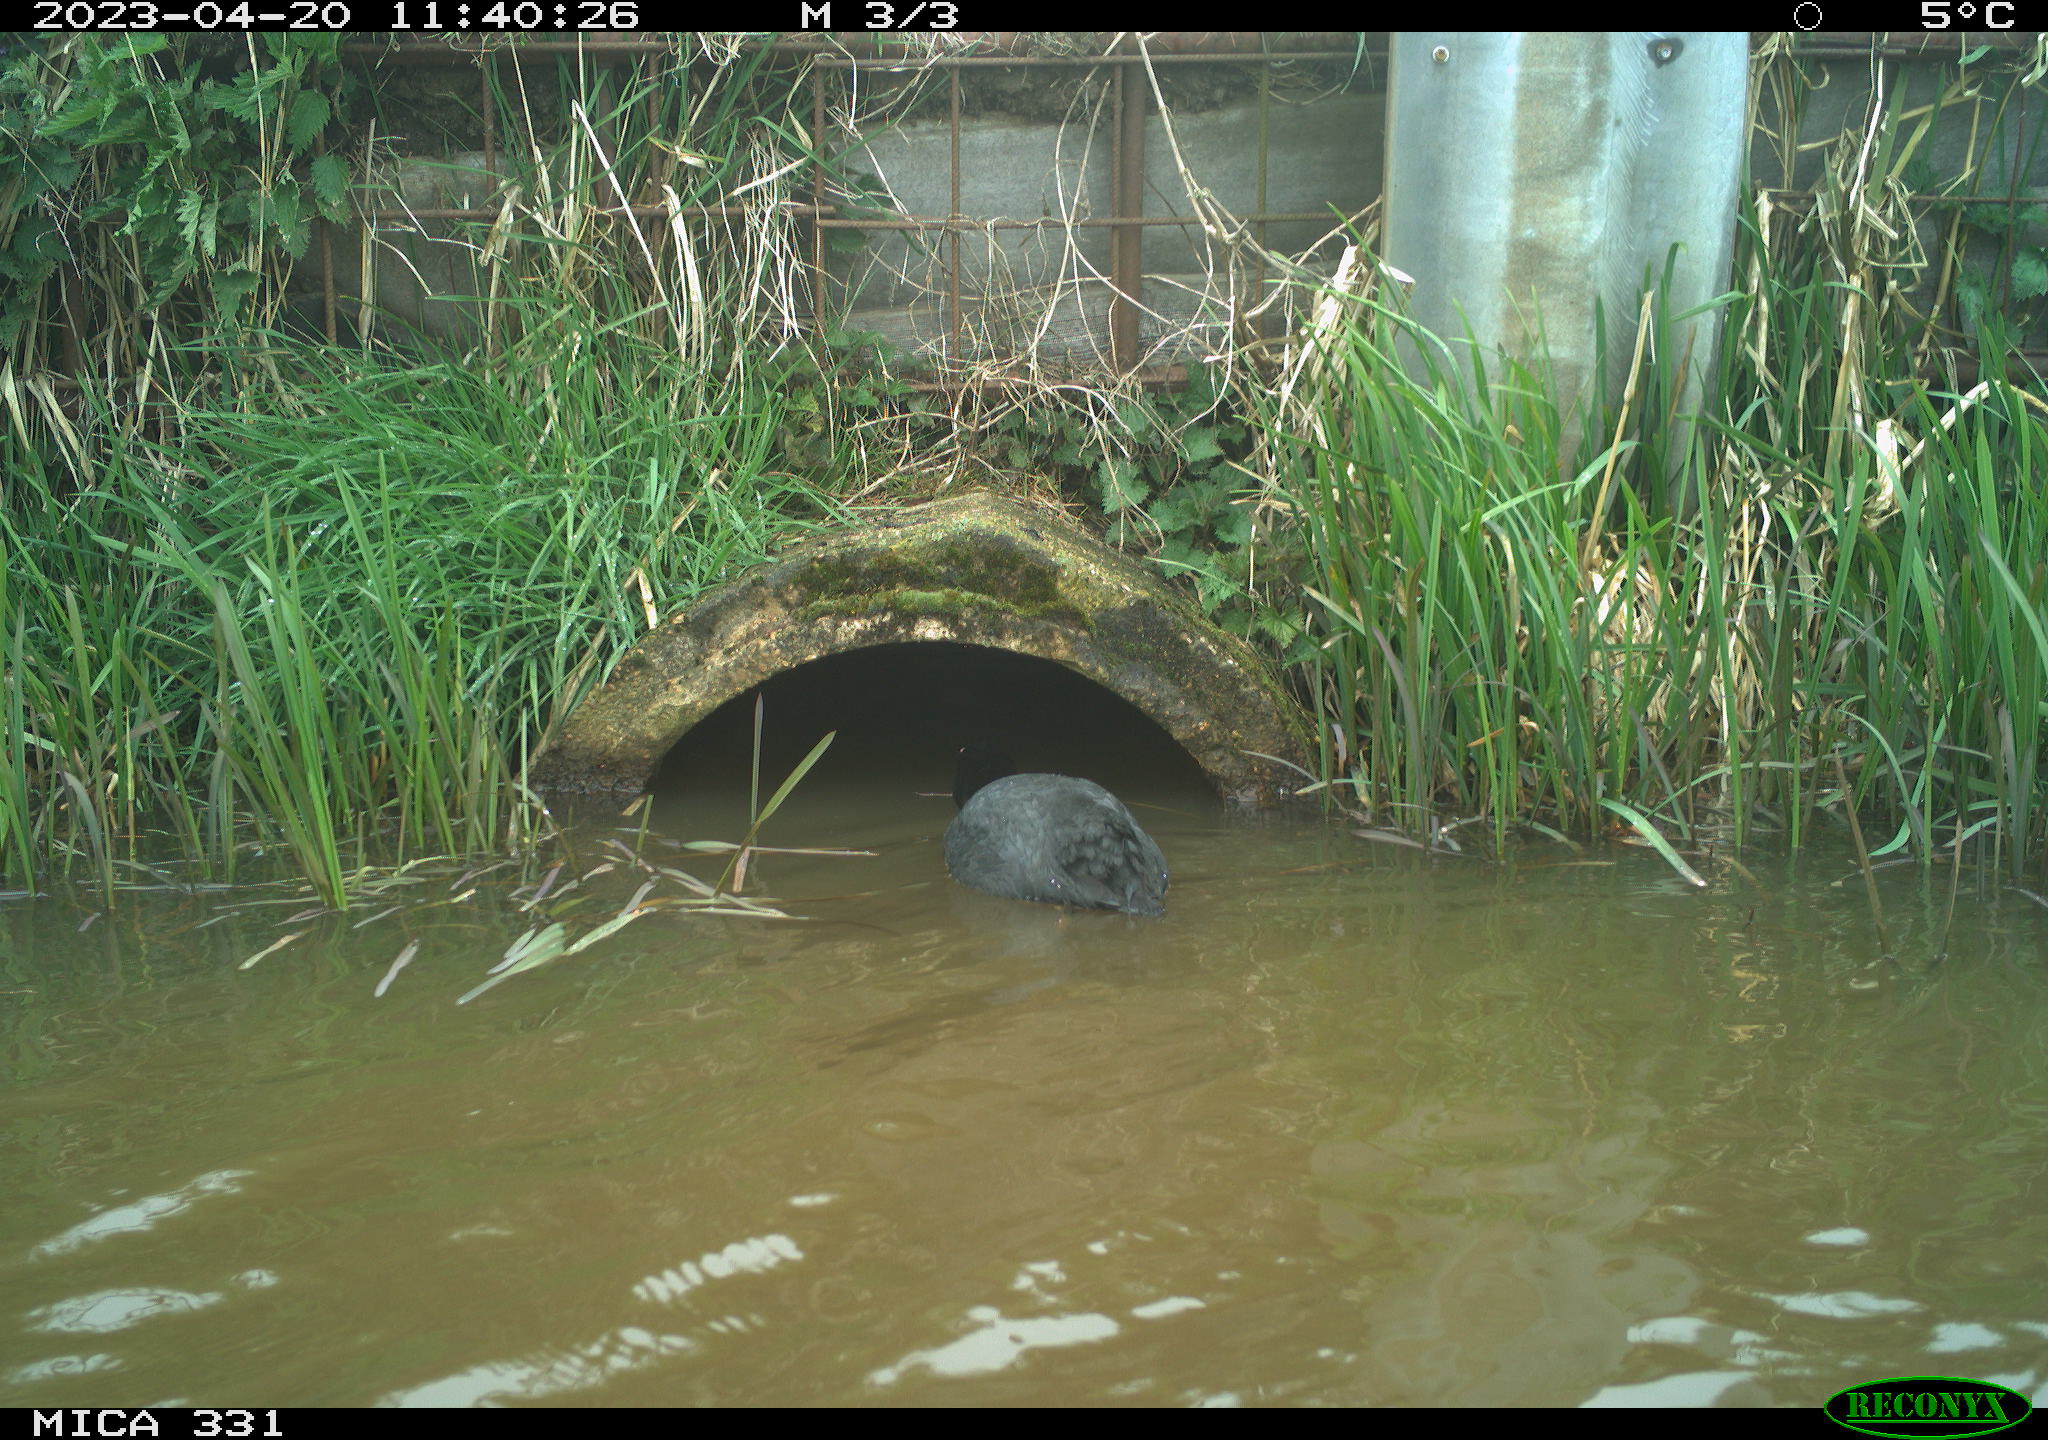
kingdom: Animalia
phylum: Chordata
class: Aves
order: Gruiformes
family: Rallidae
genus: Fulica
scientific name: Fulica atra
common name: Eurasian coot
